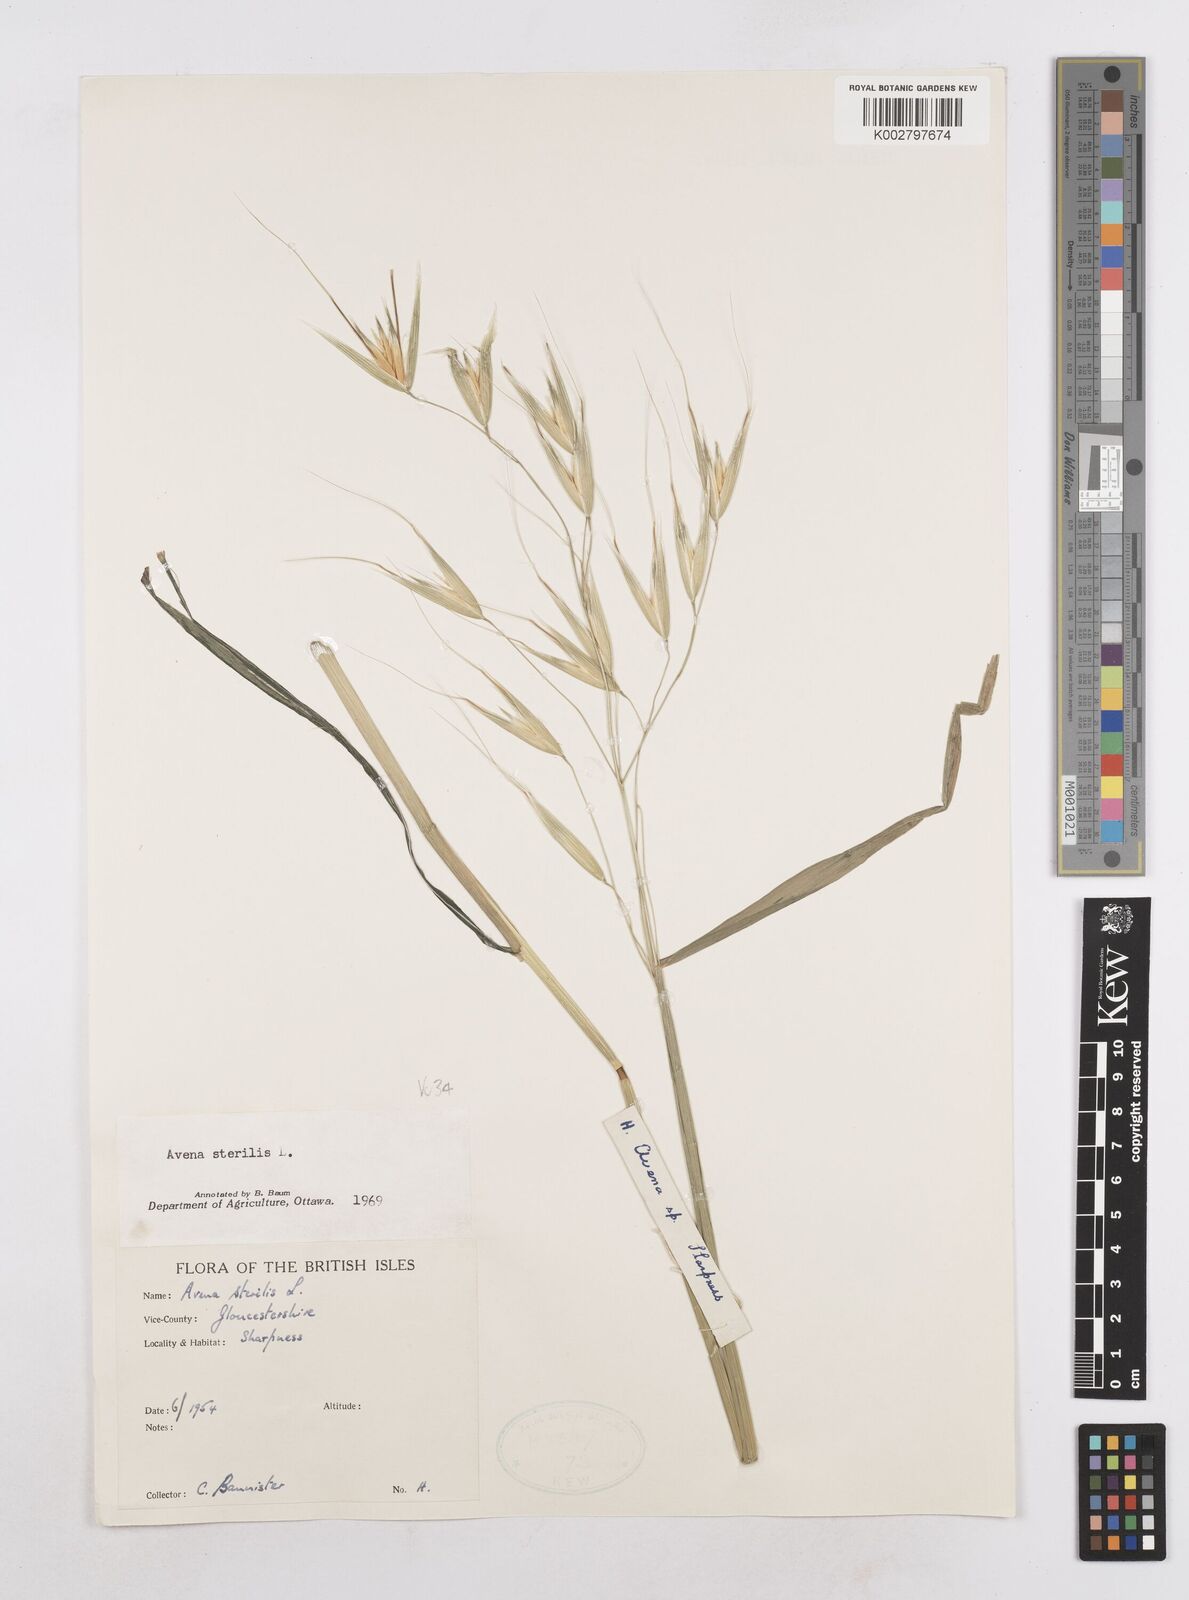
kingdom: Plantae
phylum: Tracheophyta
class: Liliopsida
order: Poales
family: Poaceae
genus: Avena
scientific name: Avena sterilis
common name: Animated oat
